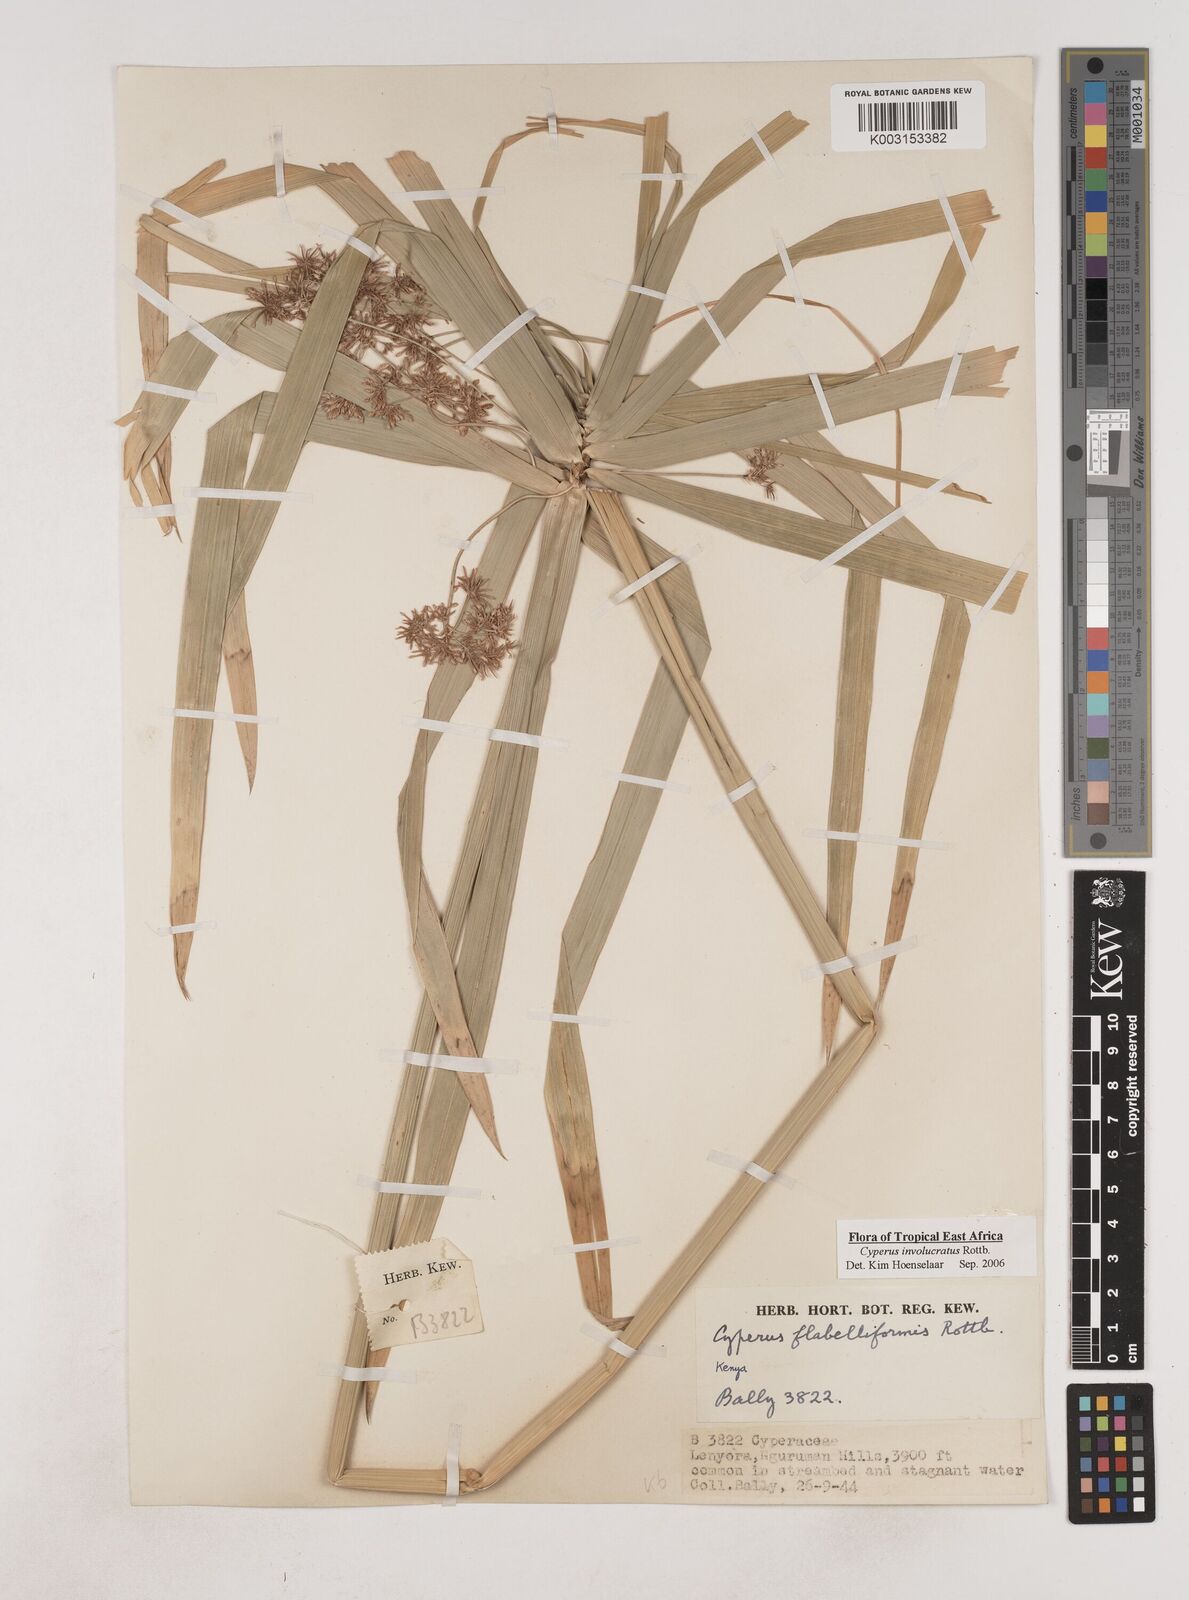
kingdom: Plantae
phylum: Tracheophyta
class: Liliopsida
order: Poales
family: Cyperaceae
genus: Cyperus
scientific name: Cyperus alternifolius
